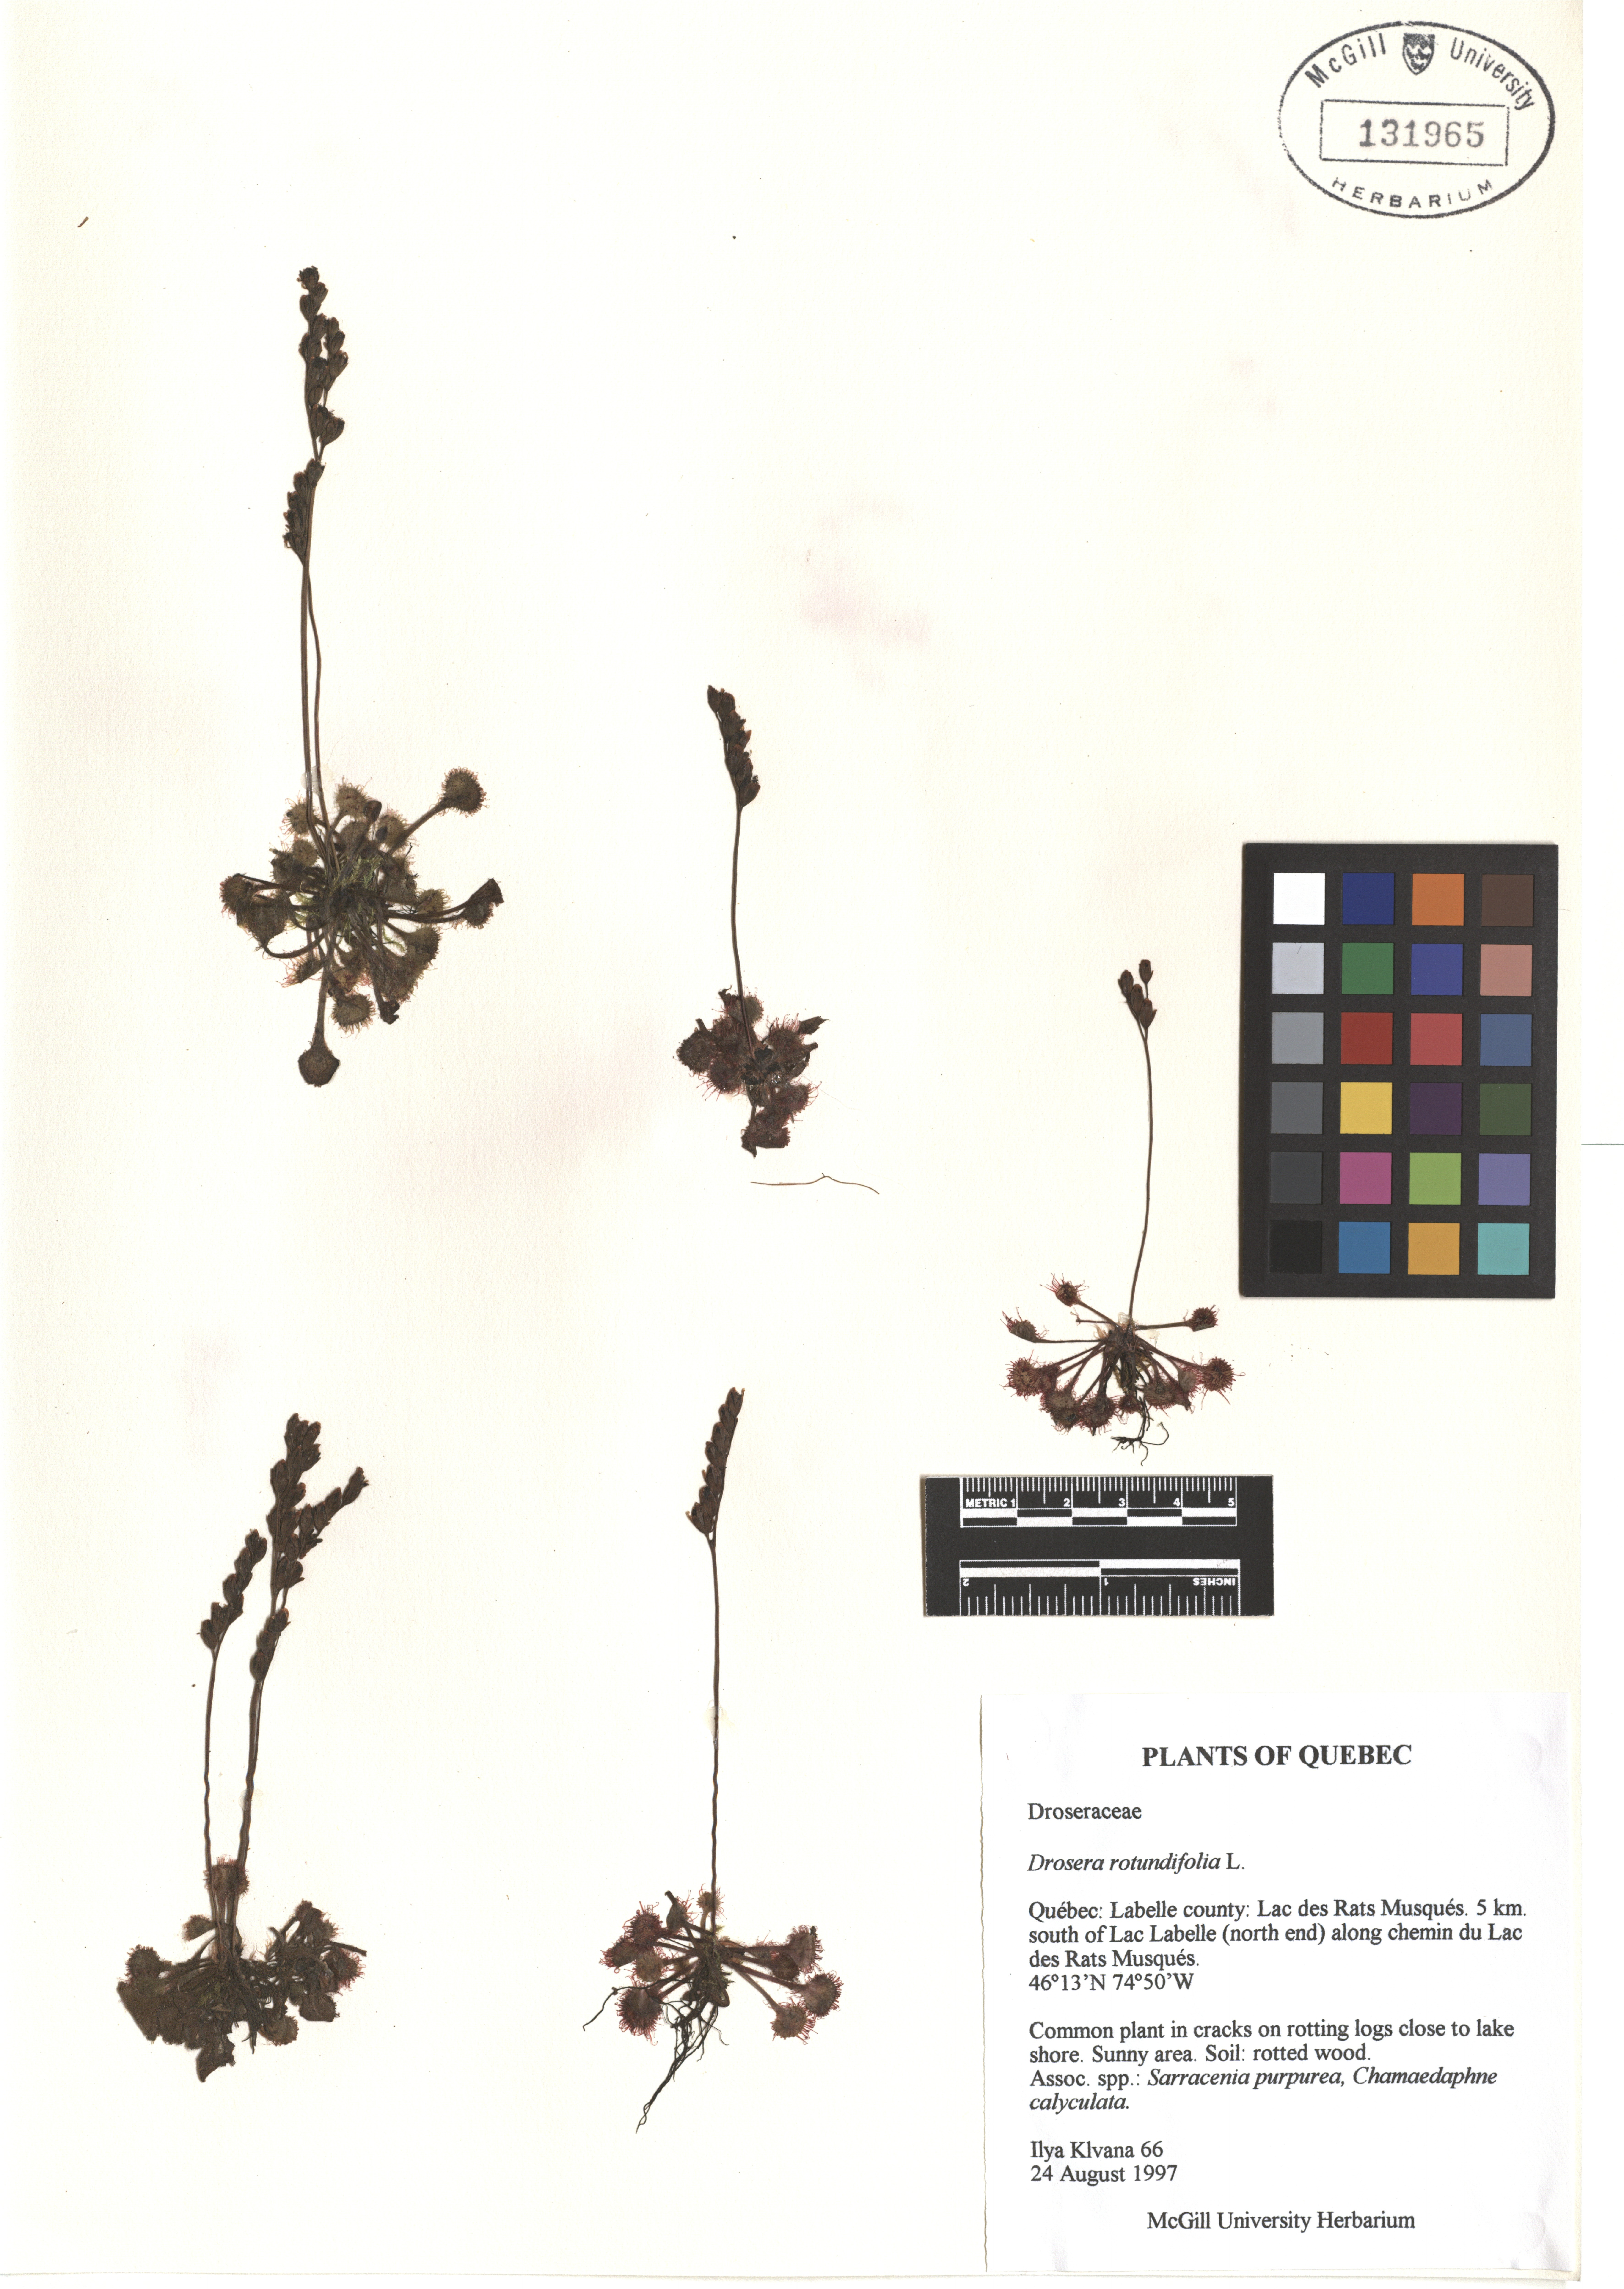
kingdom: Plantae
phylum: Tracheophyta
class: Magnoliopsida
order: Caryophyllales
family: Droseraceae
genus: Drosera
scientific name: Drosera rotundifolia
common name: Round-leaved sundew
